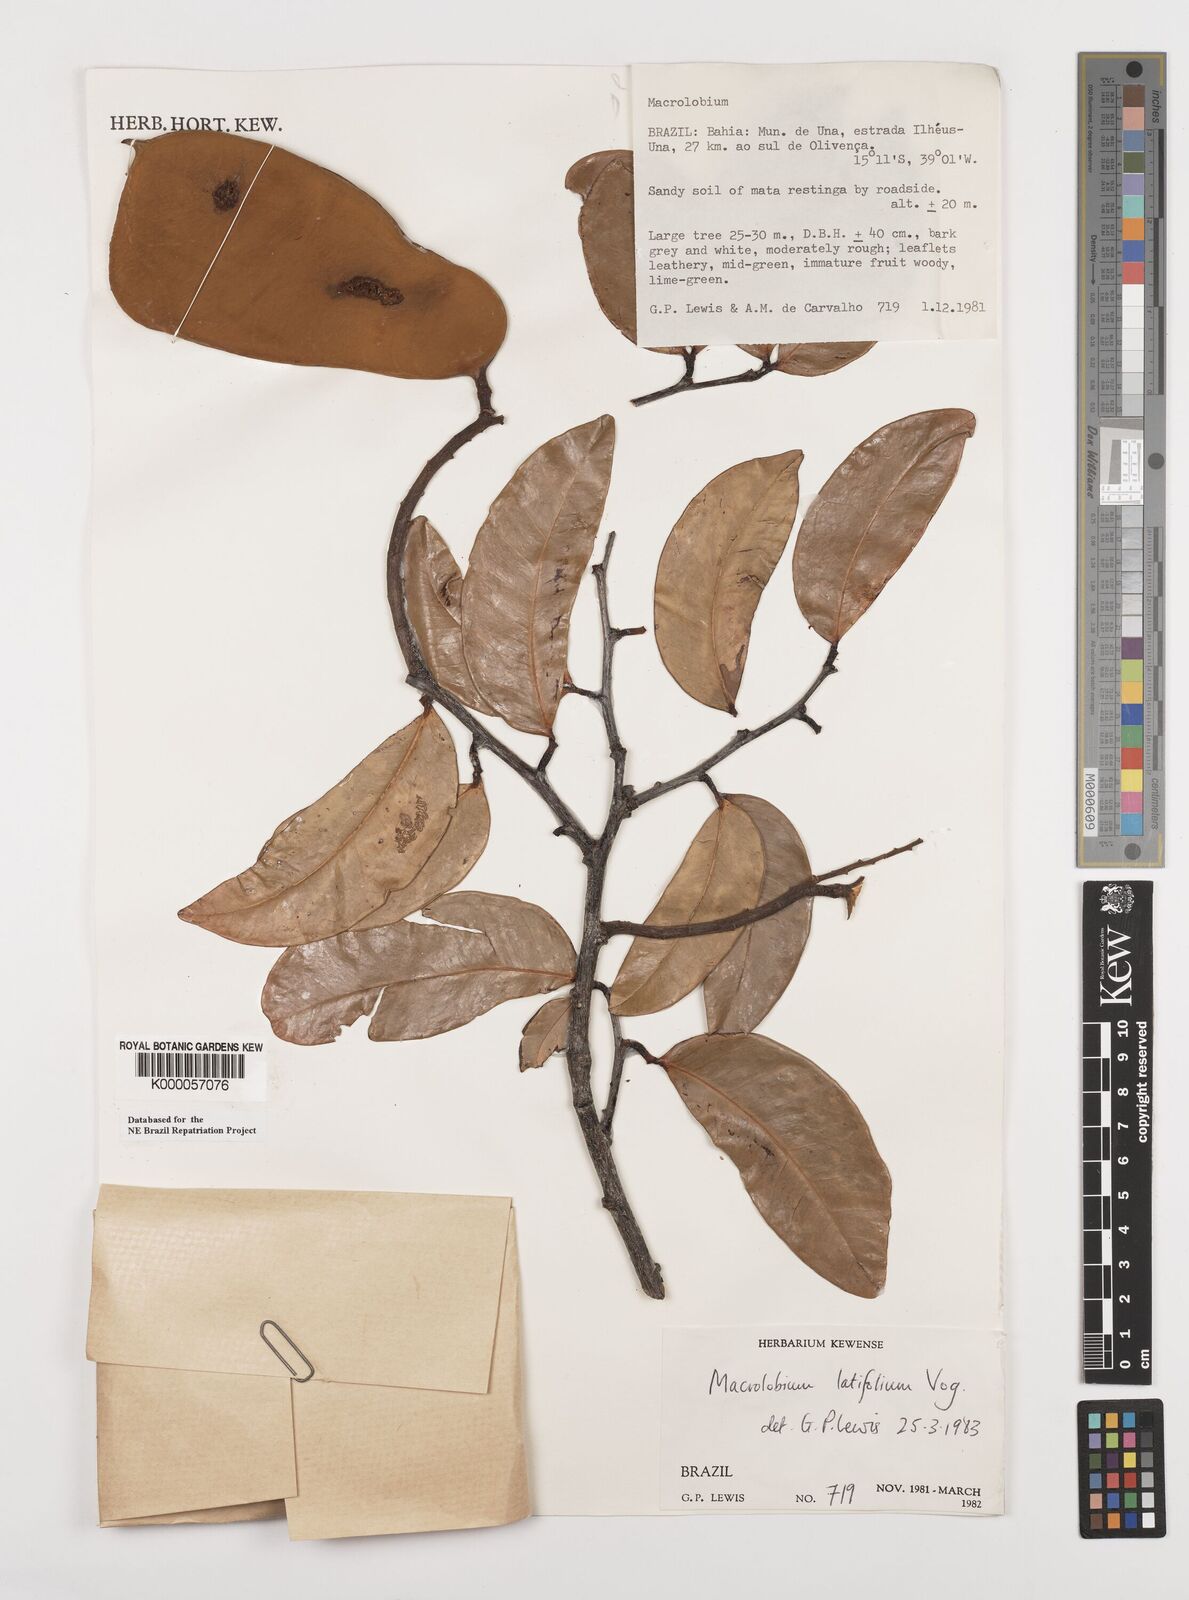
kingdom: Plantae
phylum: Tracheophyta
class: Magnoliopsida
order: Fabales
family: Fabaceae
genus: Macrolobium
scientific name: Macrolobium latifolium
